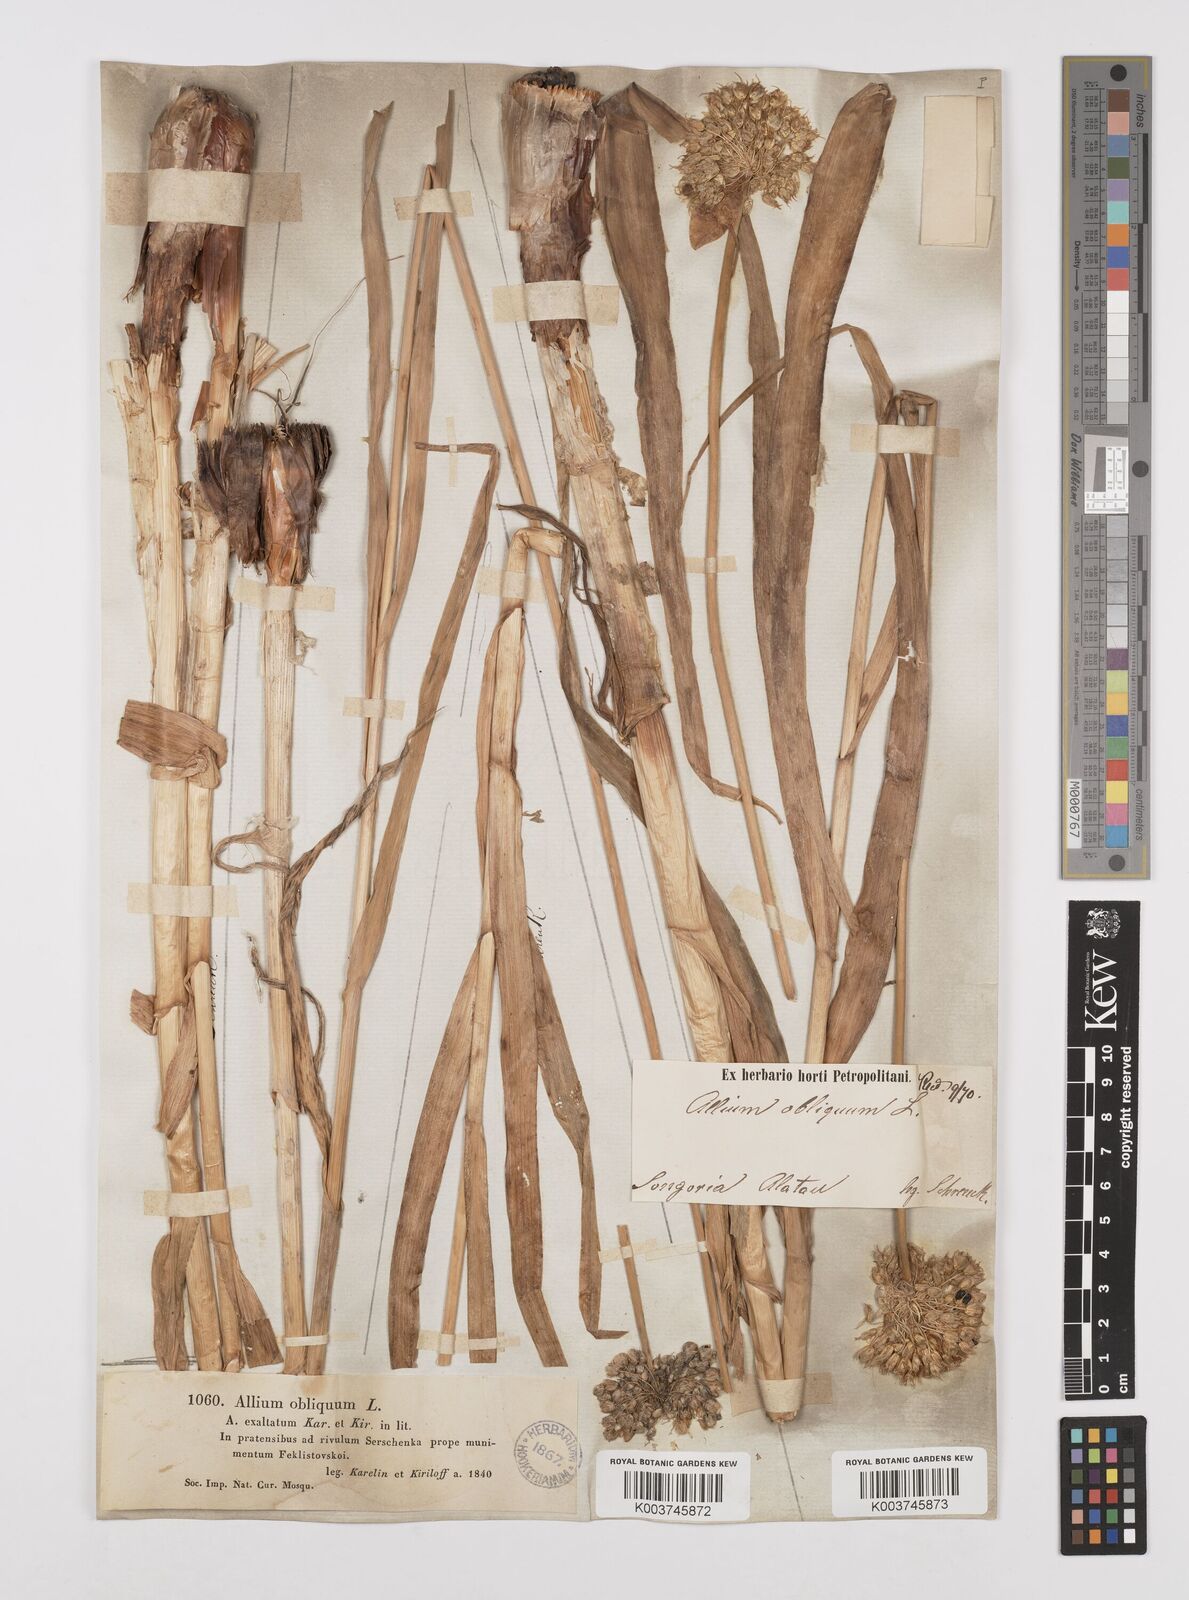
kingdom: Plantae
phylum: Tracheophyta
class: Liliopsida
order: Asparagales
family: Amaryllidaceae
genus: Allium
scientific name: Allium obliquum
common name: Oblique onion
